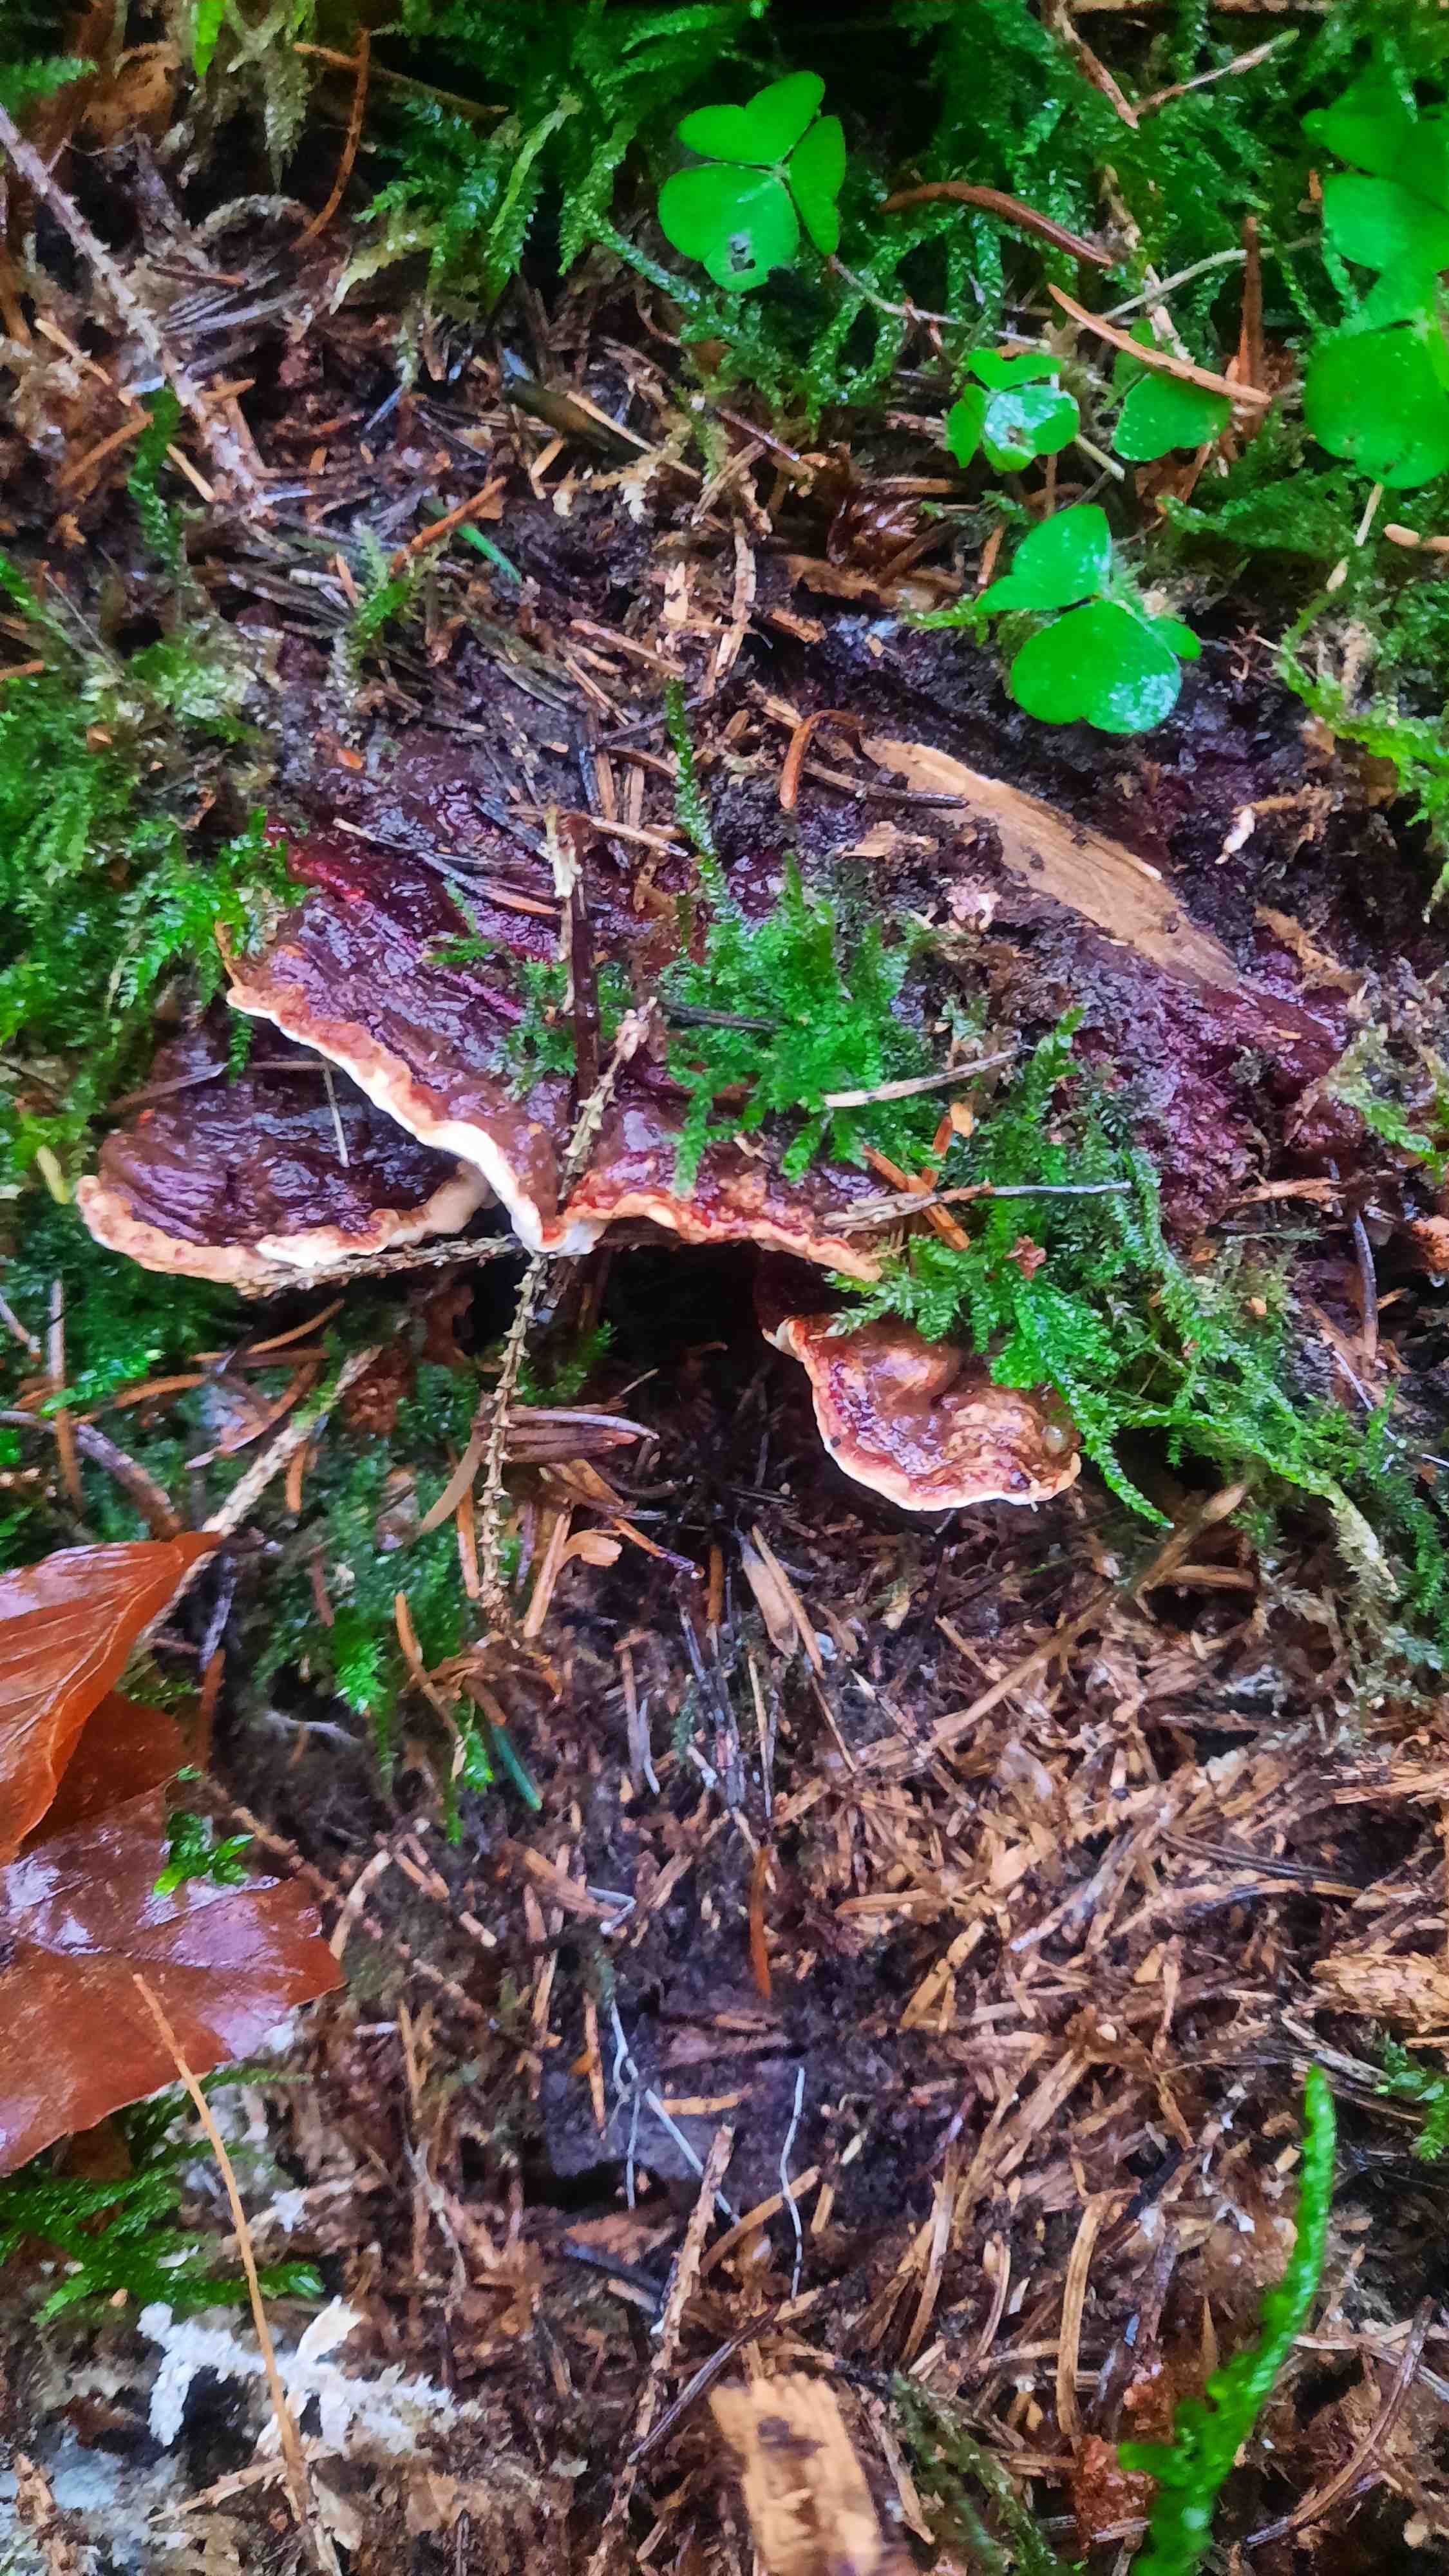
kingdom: Fungi
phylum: Basidiomycota
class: Agaricomycetes
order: Russulales
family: Bondarzewiaceae
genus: Heterobasidion
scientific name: Heterobasidion annosum
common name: almindelig rodfordærver
